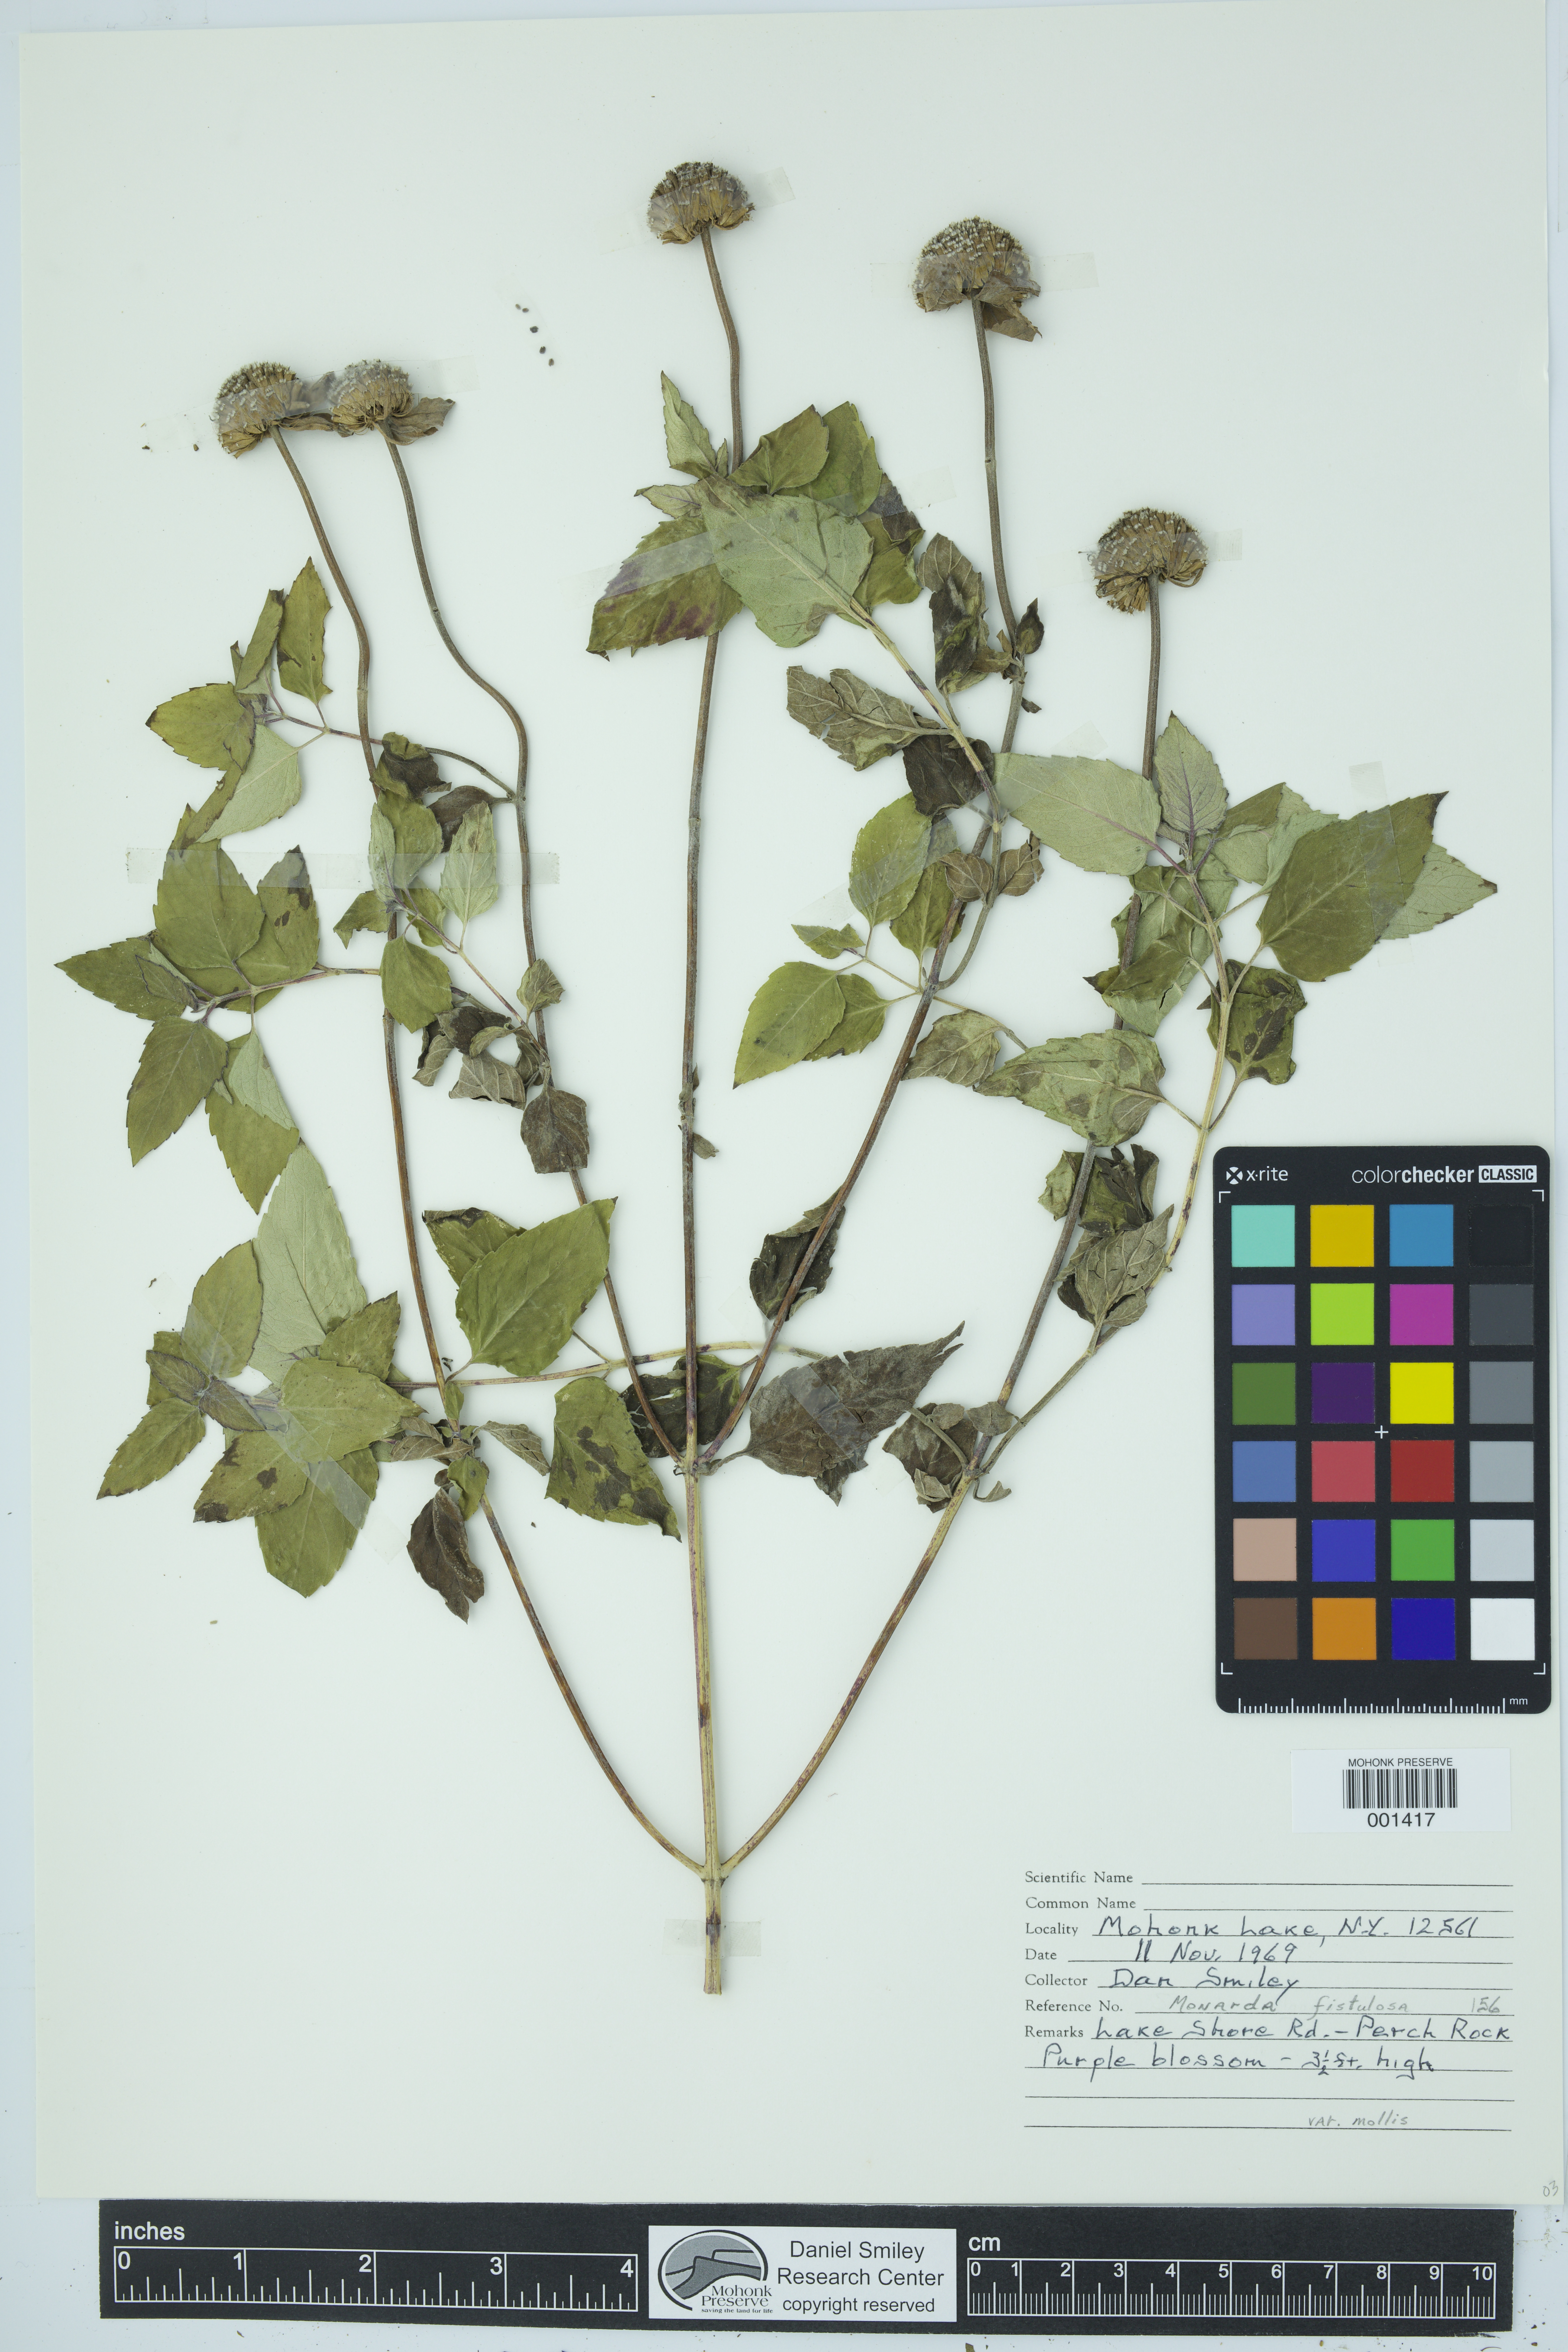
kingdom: Plantae
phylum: Tracheophyta
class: Magnoliopsida
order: Lamiales
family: Lamiaceae
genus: Monarda
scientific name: Monarda fistulosa
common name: Purple beebalm
